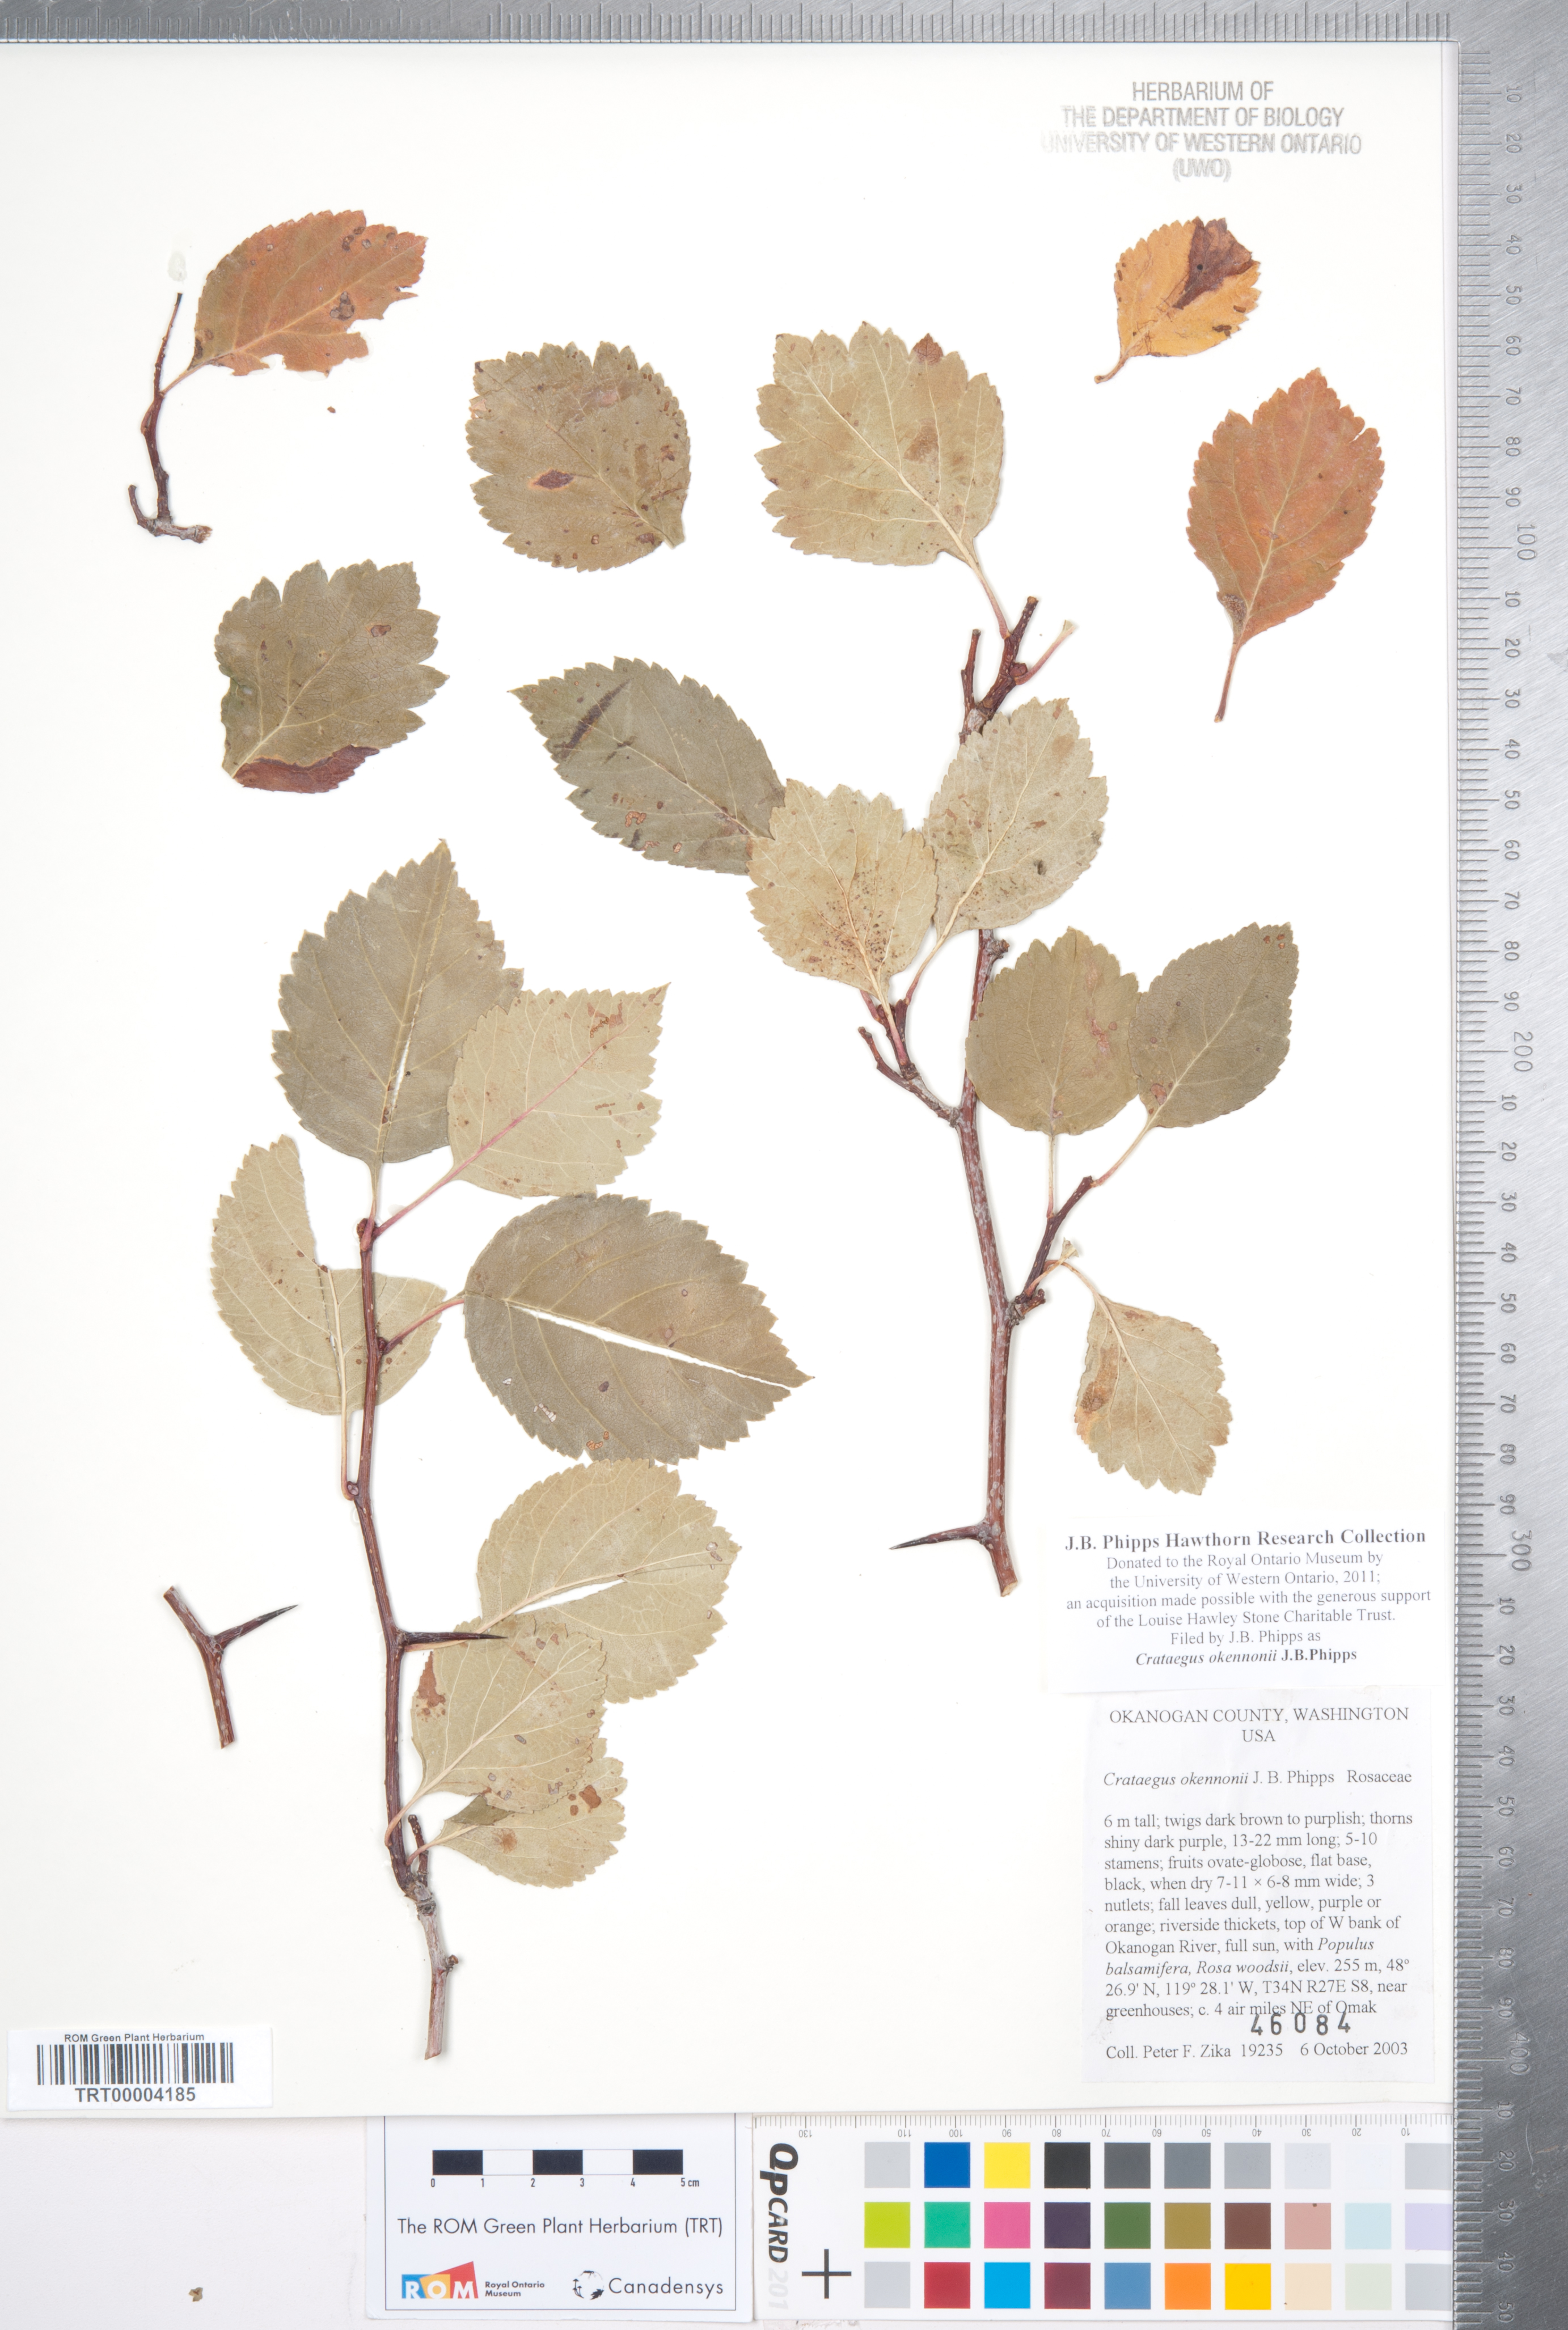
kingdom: Plantae
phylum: Tracheophyta
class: Magnoliopsida
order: Rosales
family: Rosaceae
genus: Crataegus
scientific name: Crataegus okennonii
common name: O'kennon's hawthorn
